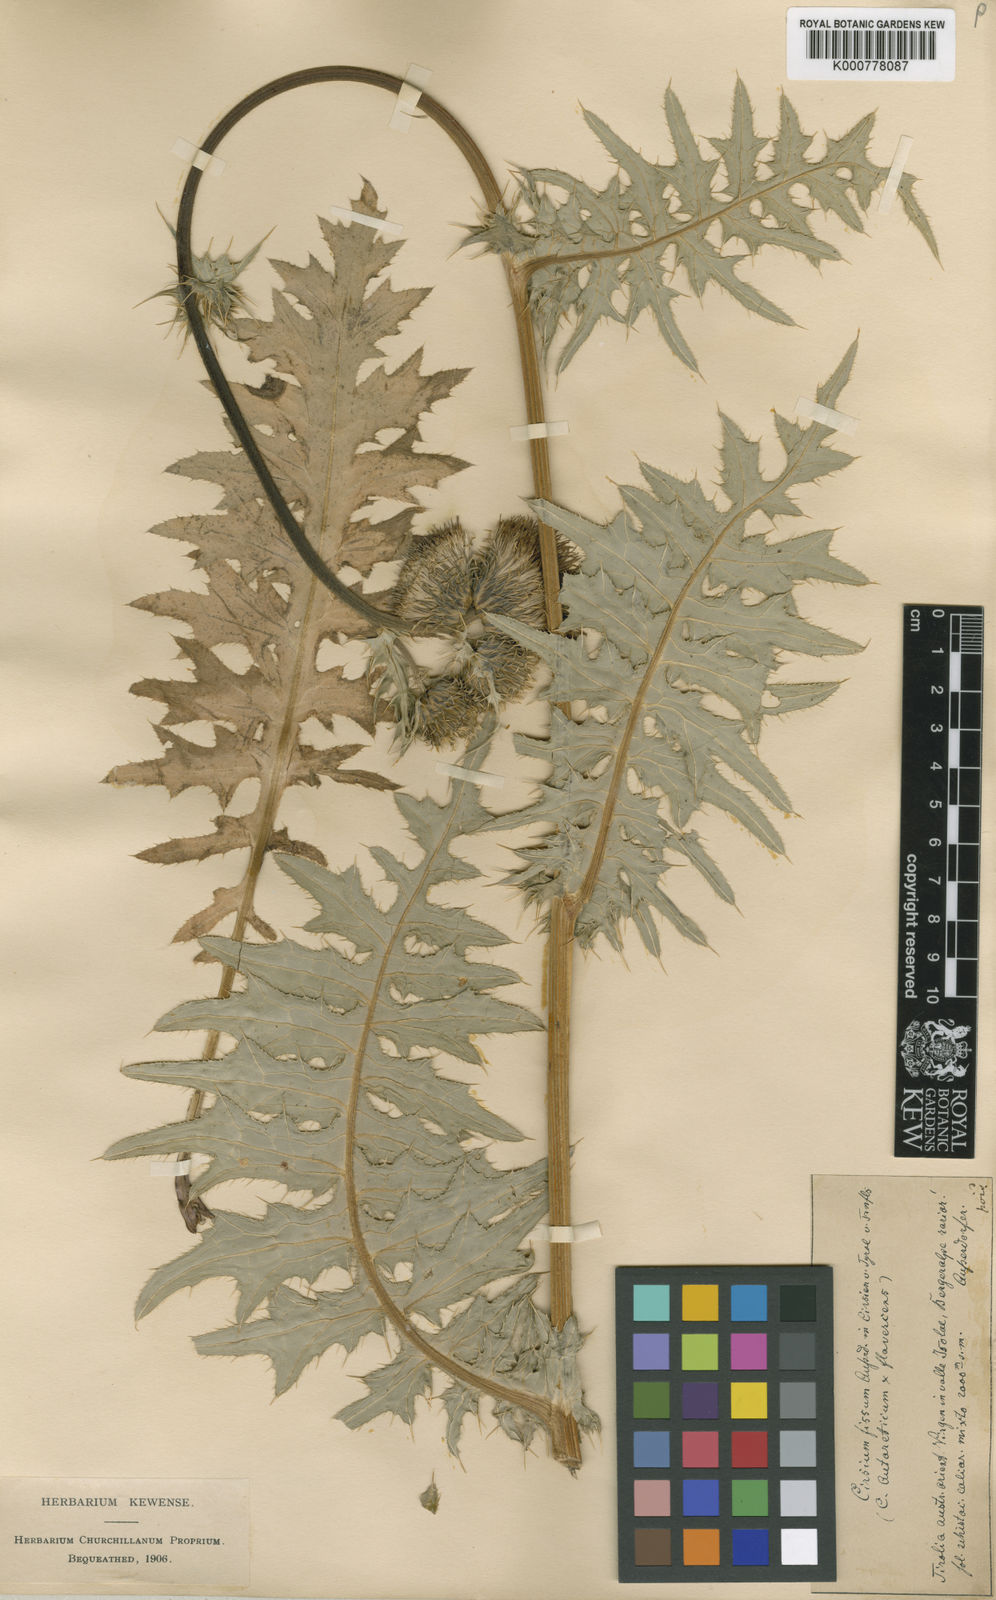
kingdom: Plantae
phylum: Tracheophyta
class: Magnoliopsida
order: Asterales
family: Asteraceae
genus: Cirsium
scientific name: Cirsium spinosissimum
